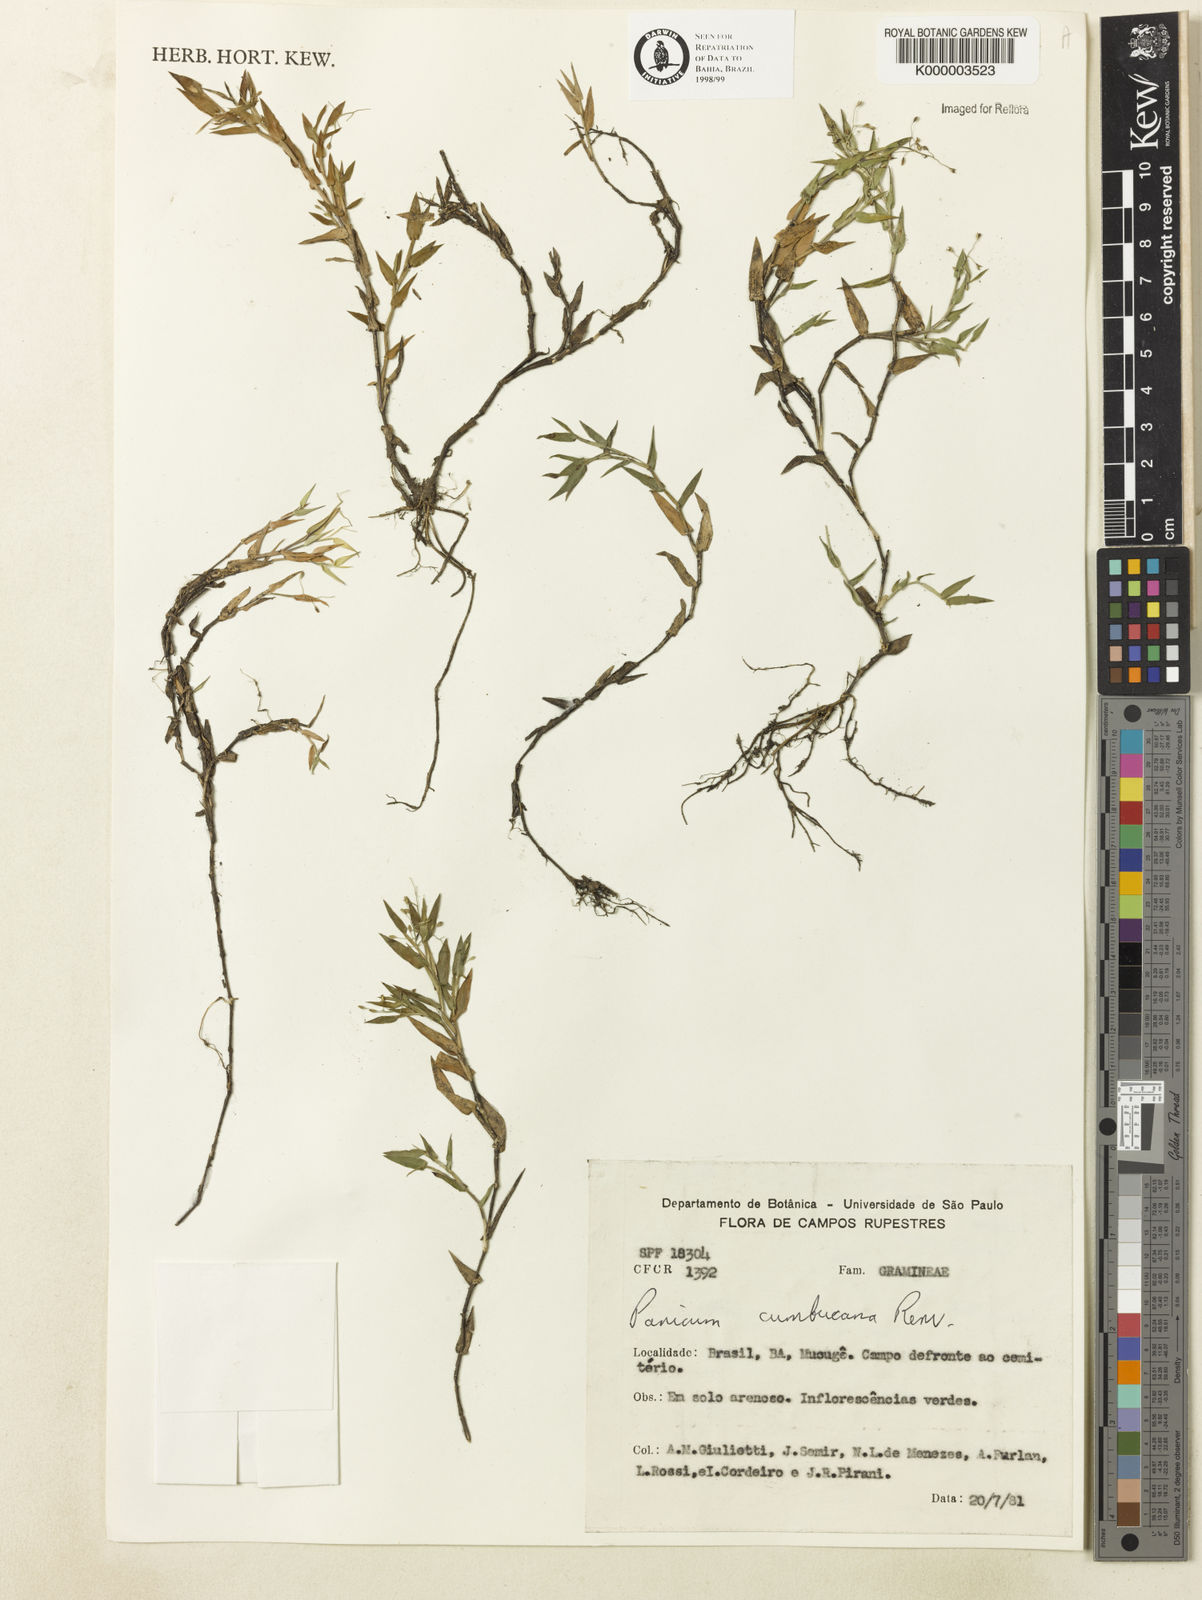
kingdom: Plantae
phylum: Tracheophyta
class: Liliopsida
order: Poales
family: Poaceae
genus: Dichanthelium
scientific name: Dichanthelium cumbucanum
